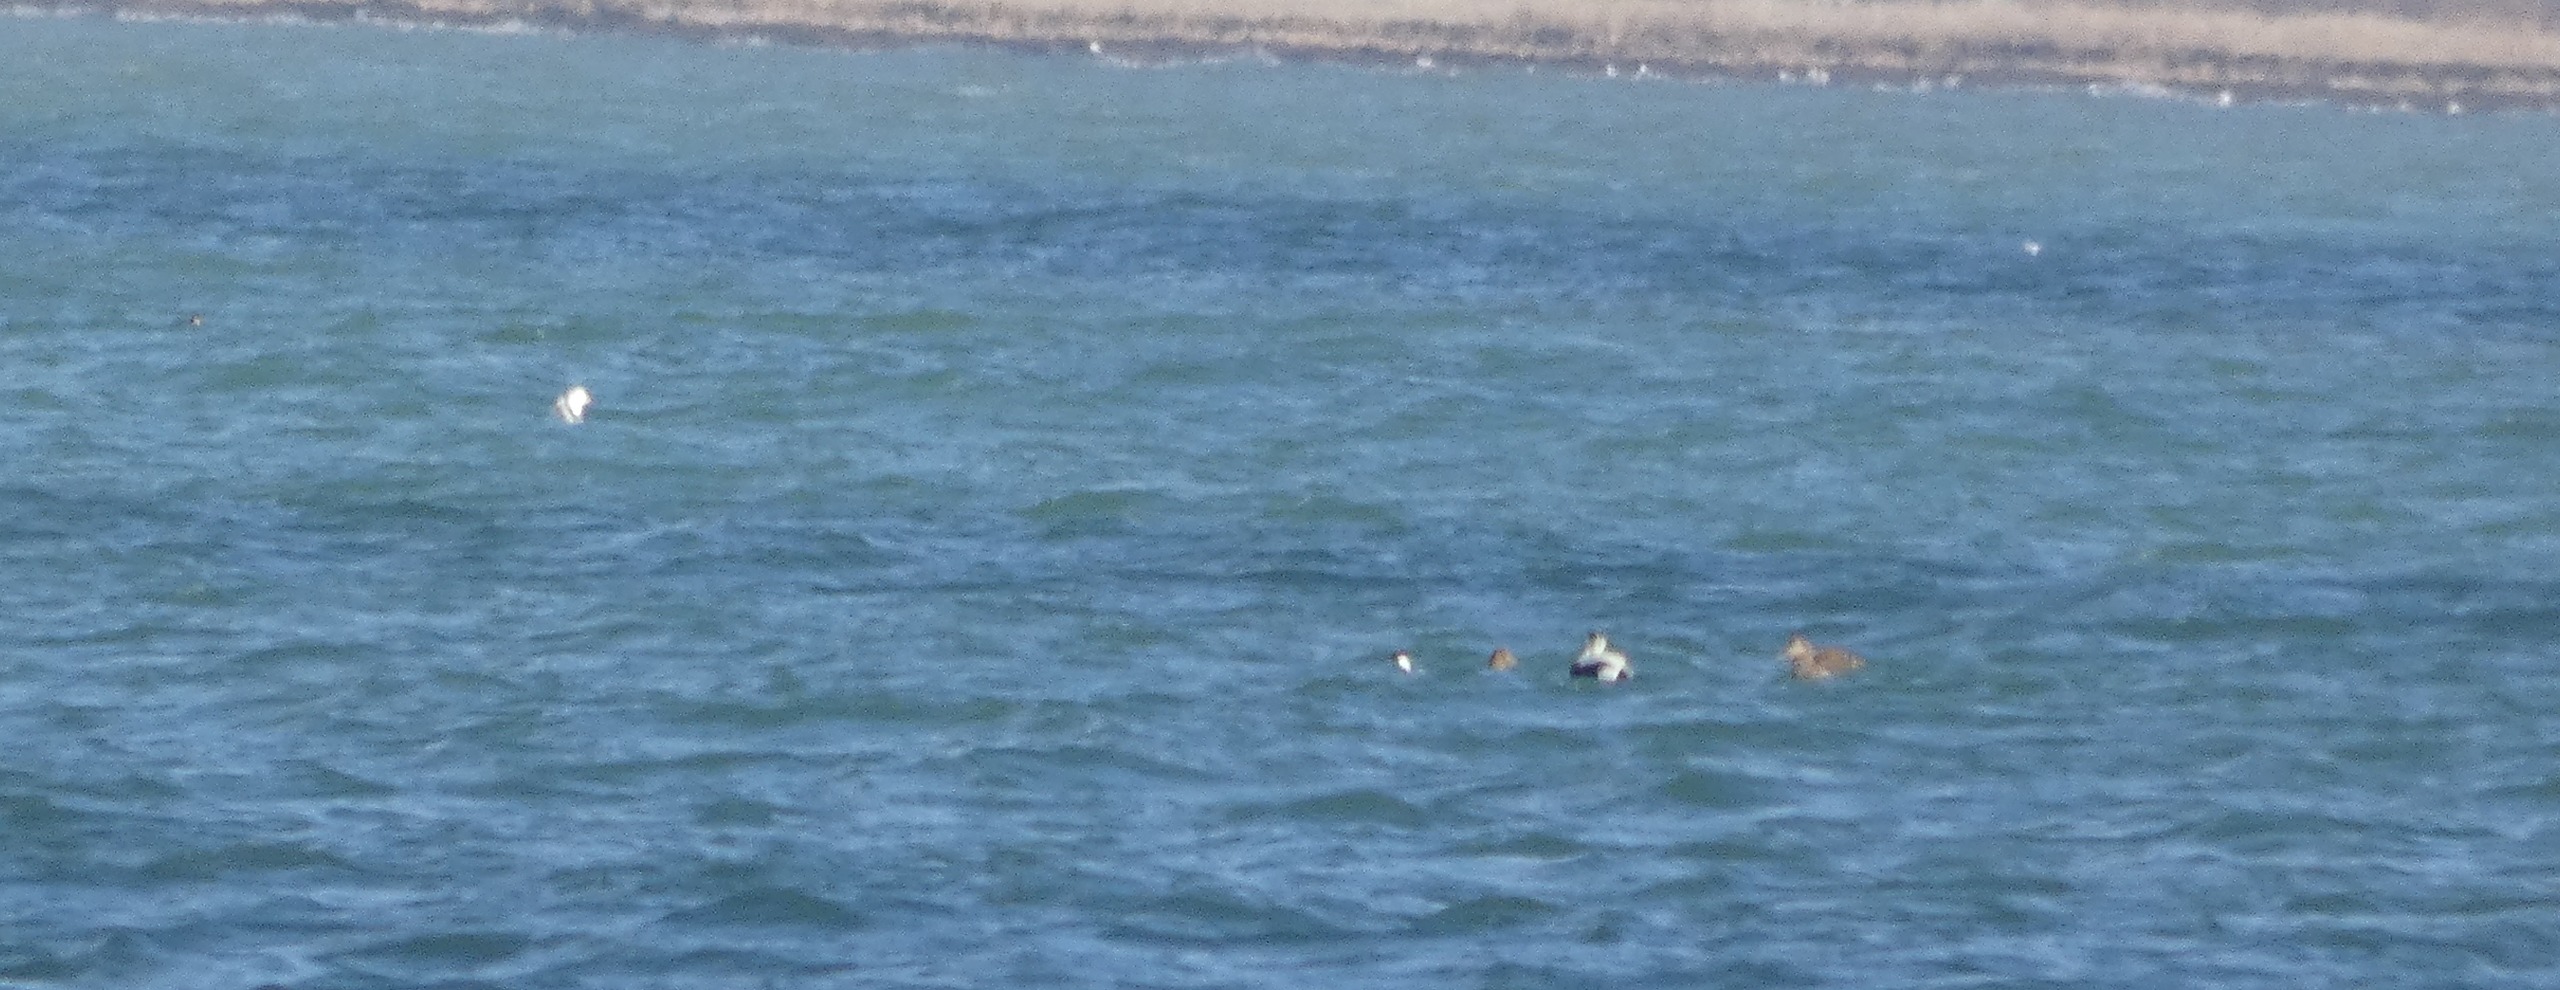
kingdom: Animalia
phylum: Chordata
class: Aves
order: Anseriformes
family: Anatidae
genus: Somateria
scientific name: Somateria mollissima
